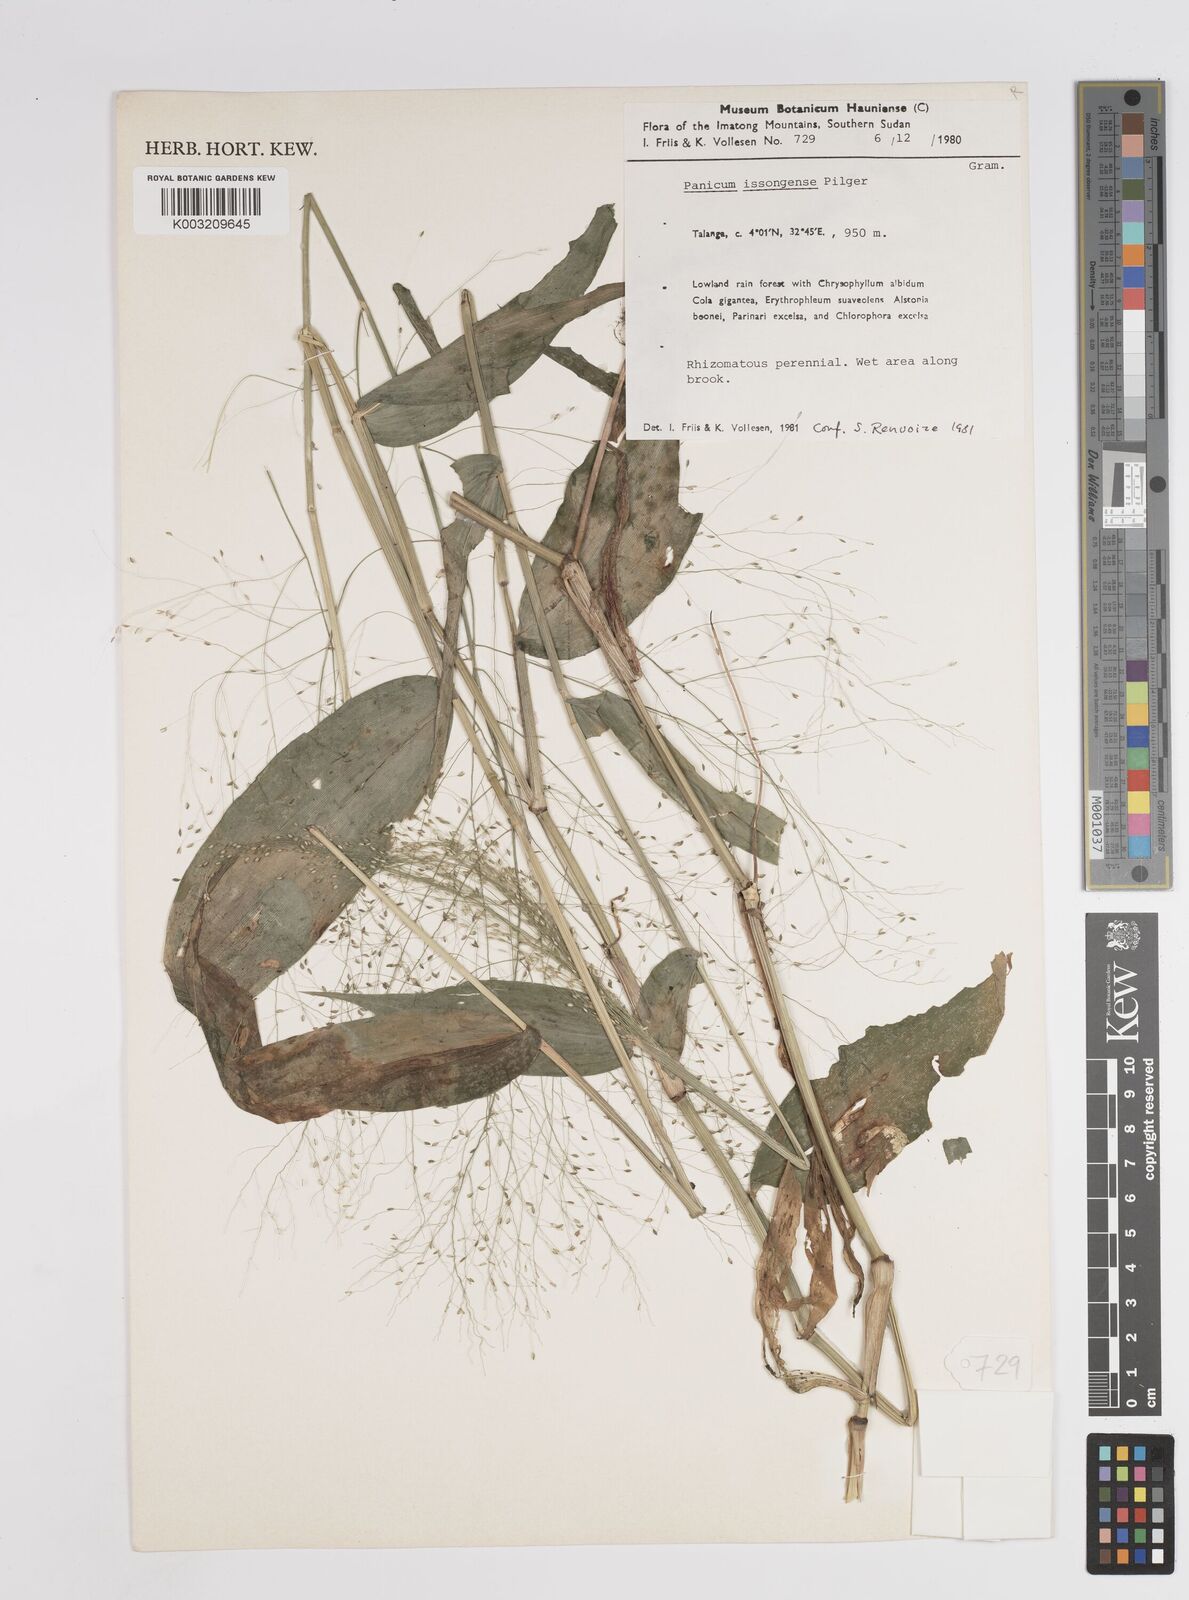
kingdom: Plantae
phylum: Tracheophyta
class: Liliopsida
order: Poales
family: Poaceae
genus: Panicum
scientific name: Panicum issongense
